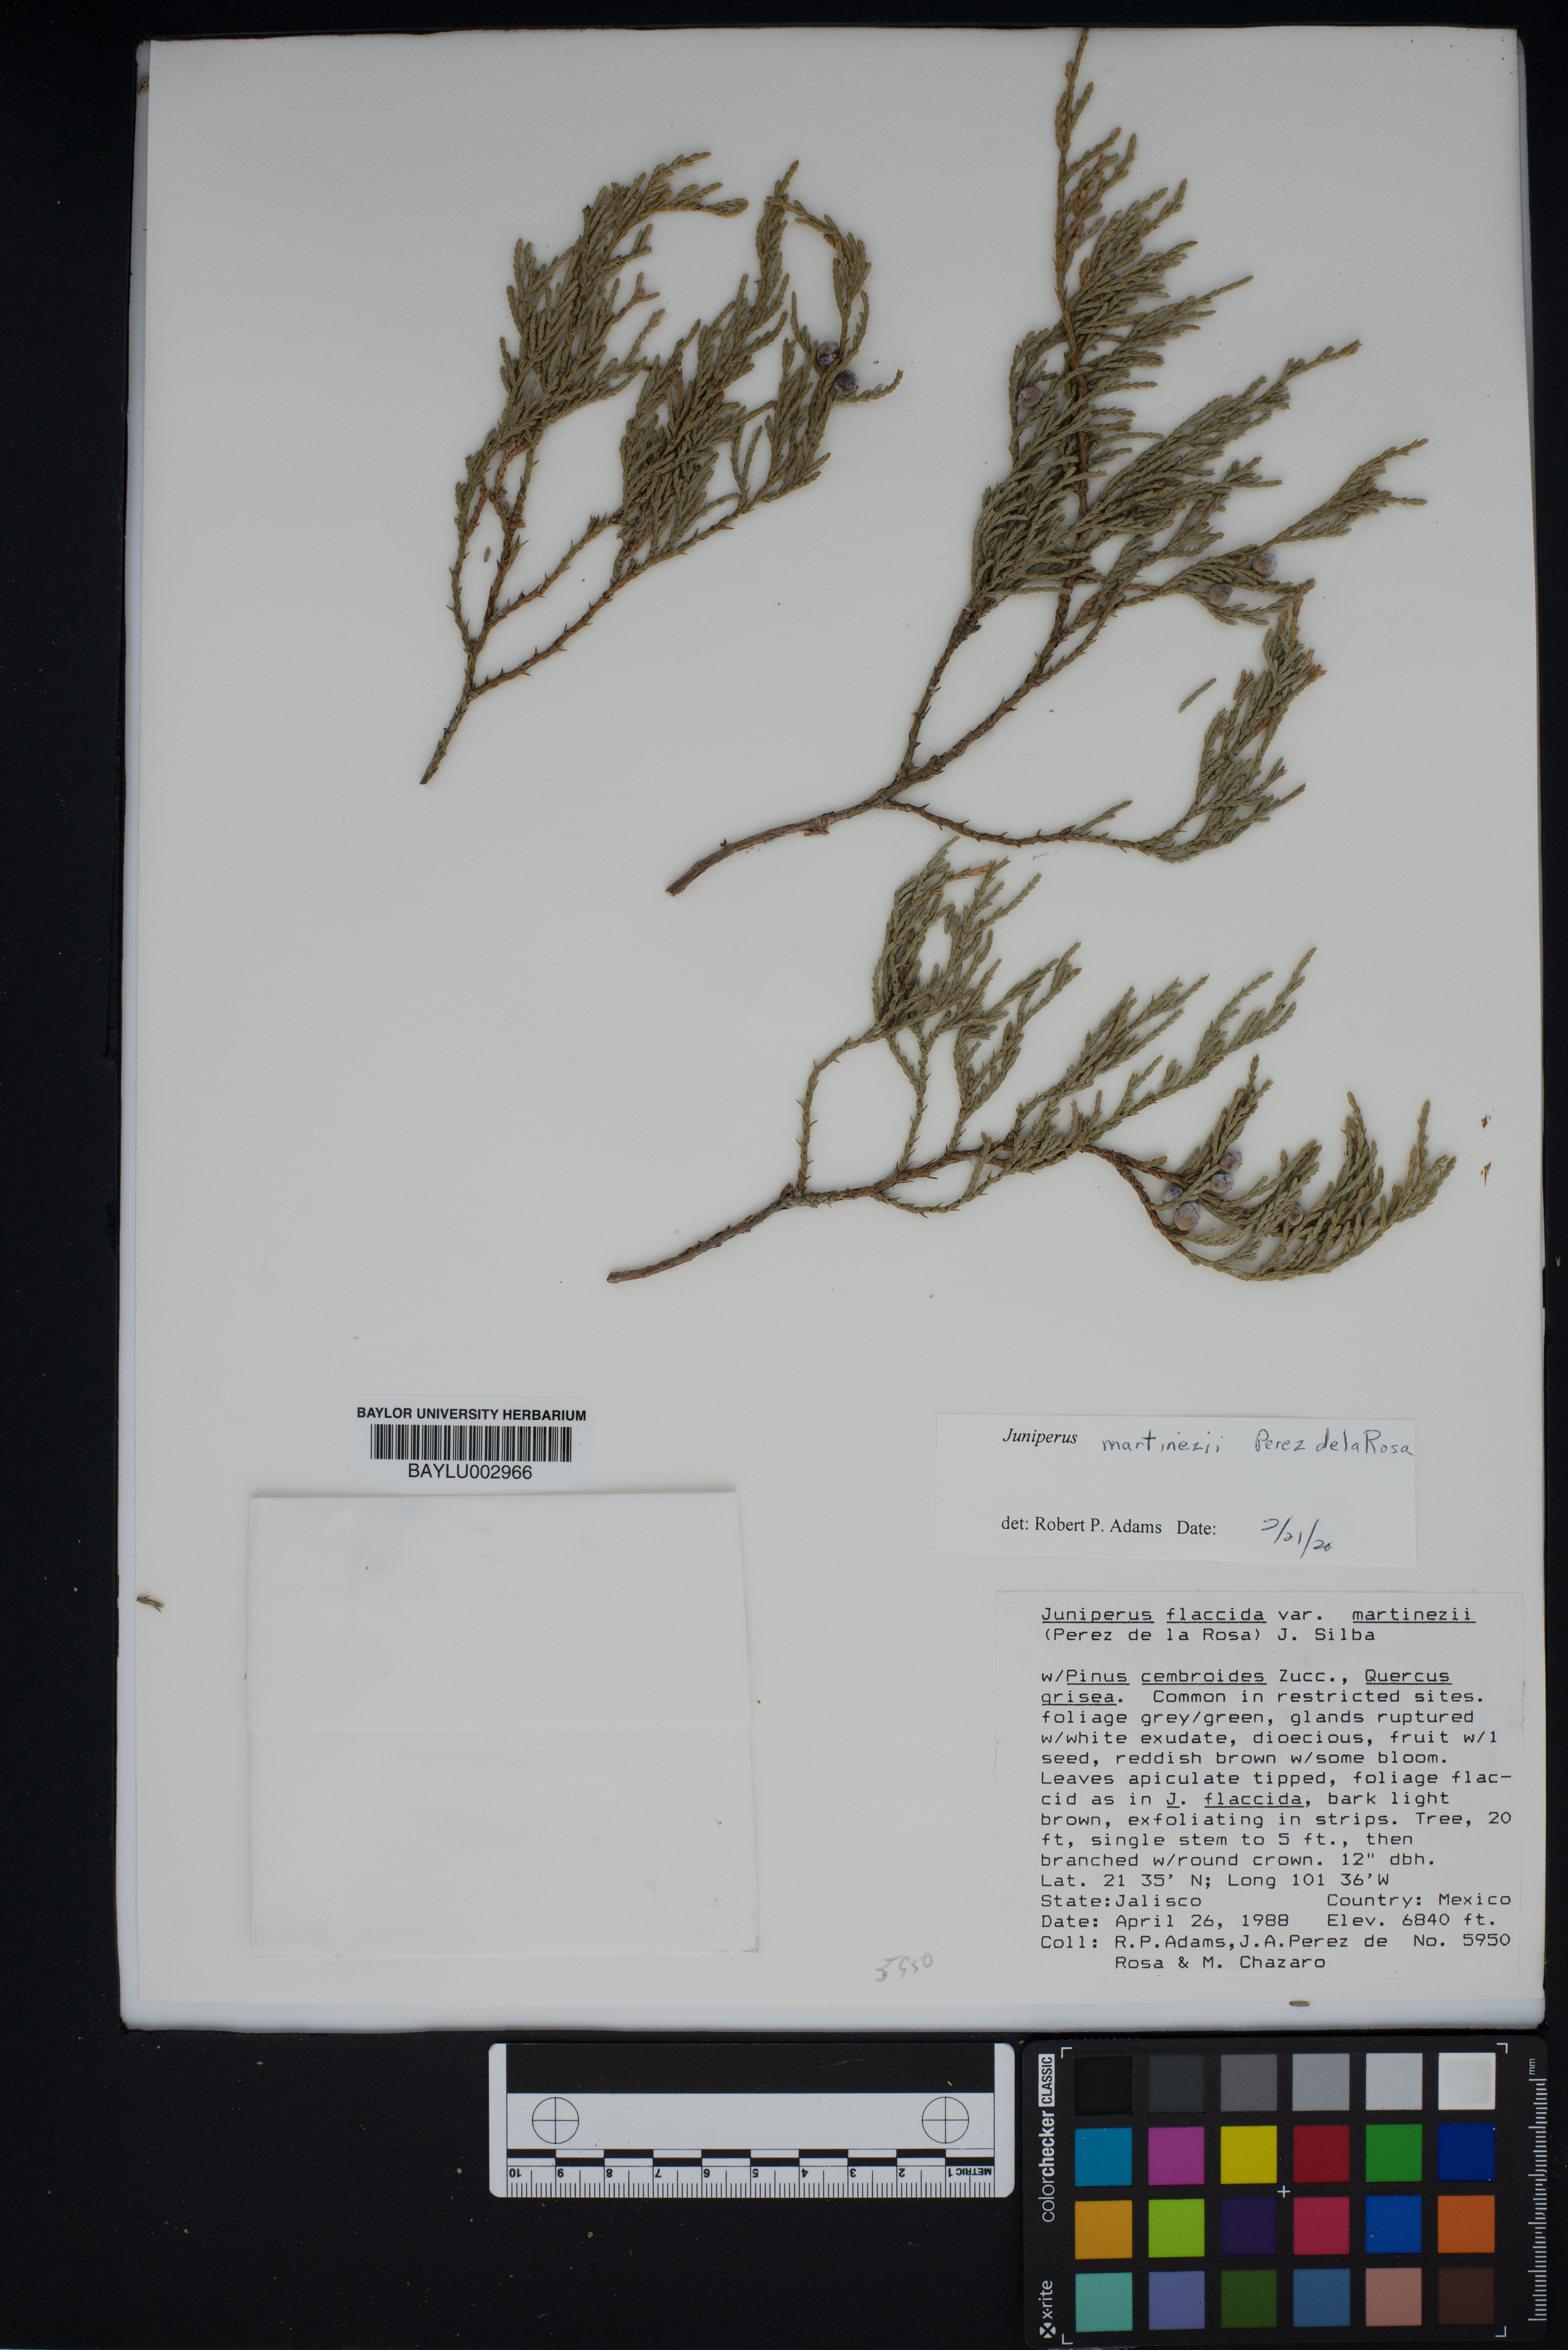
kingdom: Plantae
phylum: Tracheophyta
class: Pinopsida
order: Pinales
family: Cupressaceae
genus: Juniperus
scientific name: Juniperus flaccida
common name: Drooping juniper
